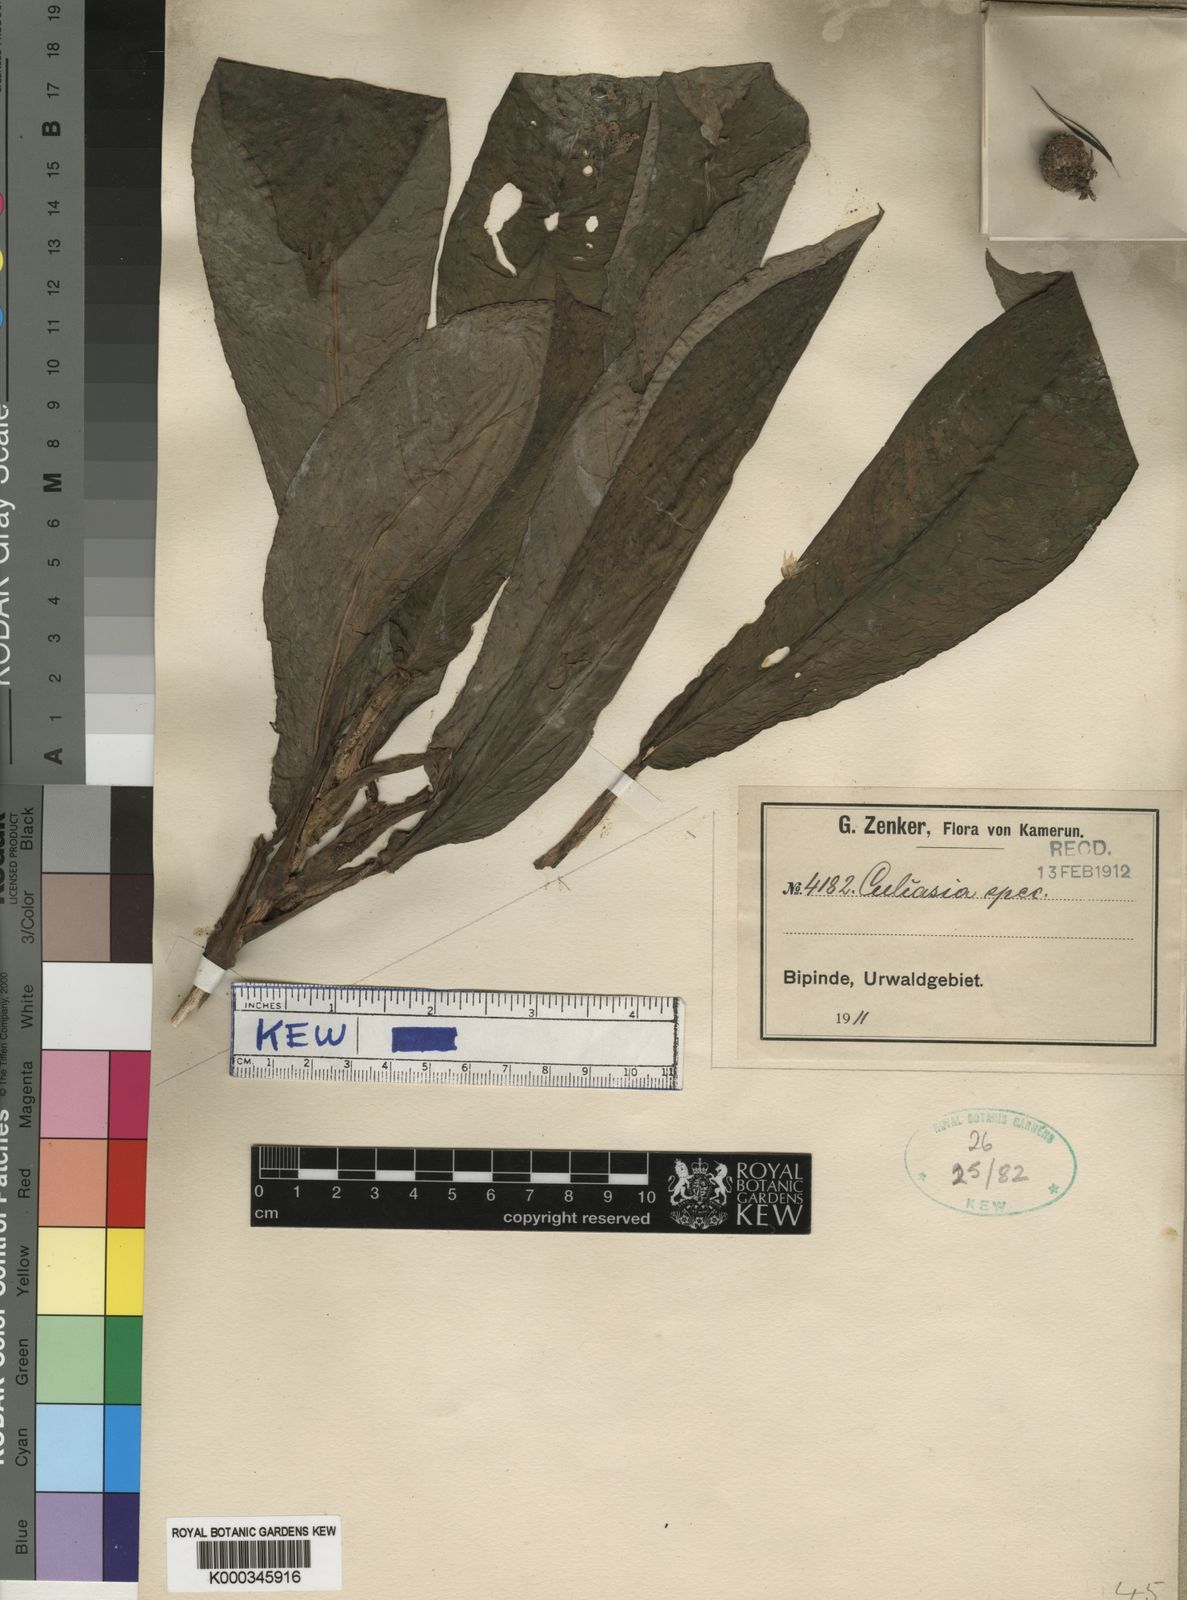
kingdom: Plantae
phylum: Tracheophyta
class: Liliopsida
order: Alismatales
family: Araceae
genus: Culcasia
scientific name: Culcasia panduriformis
